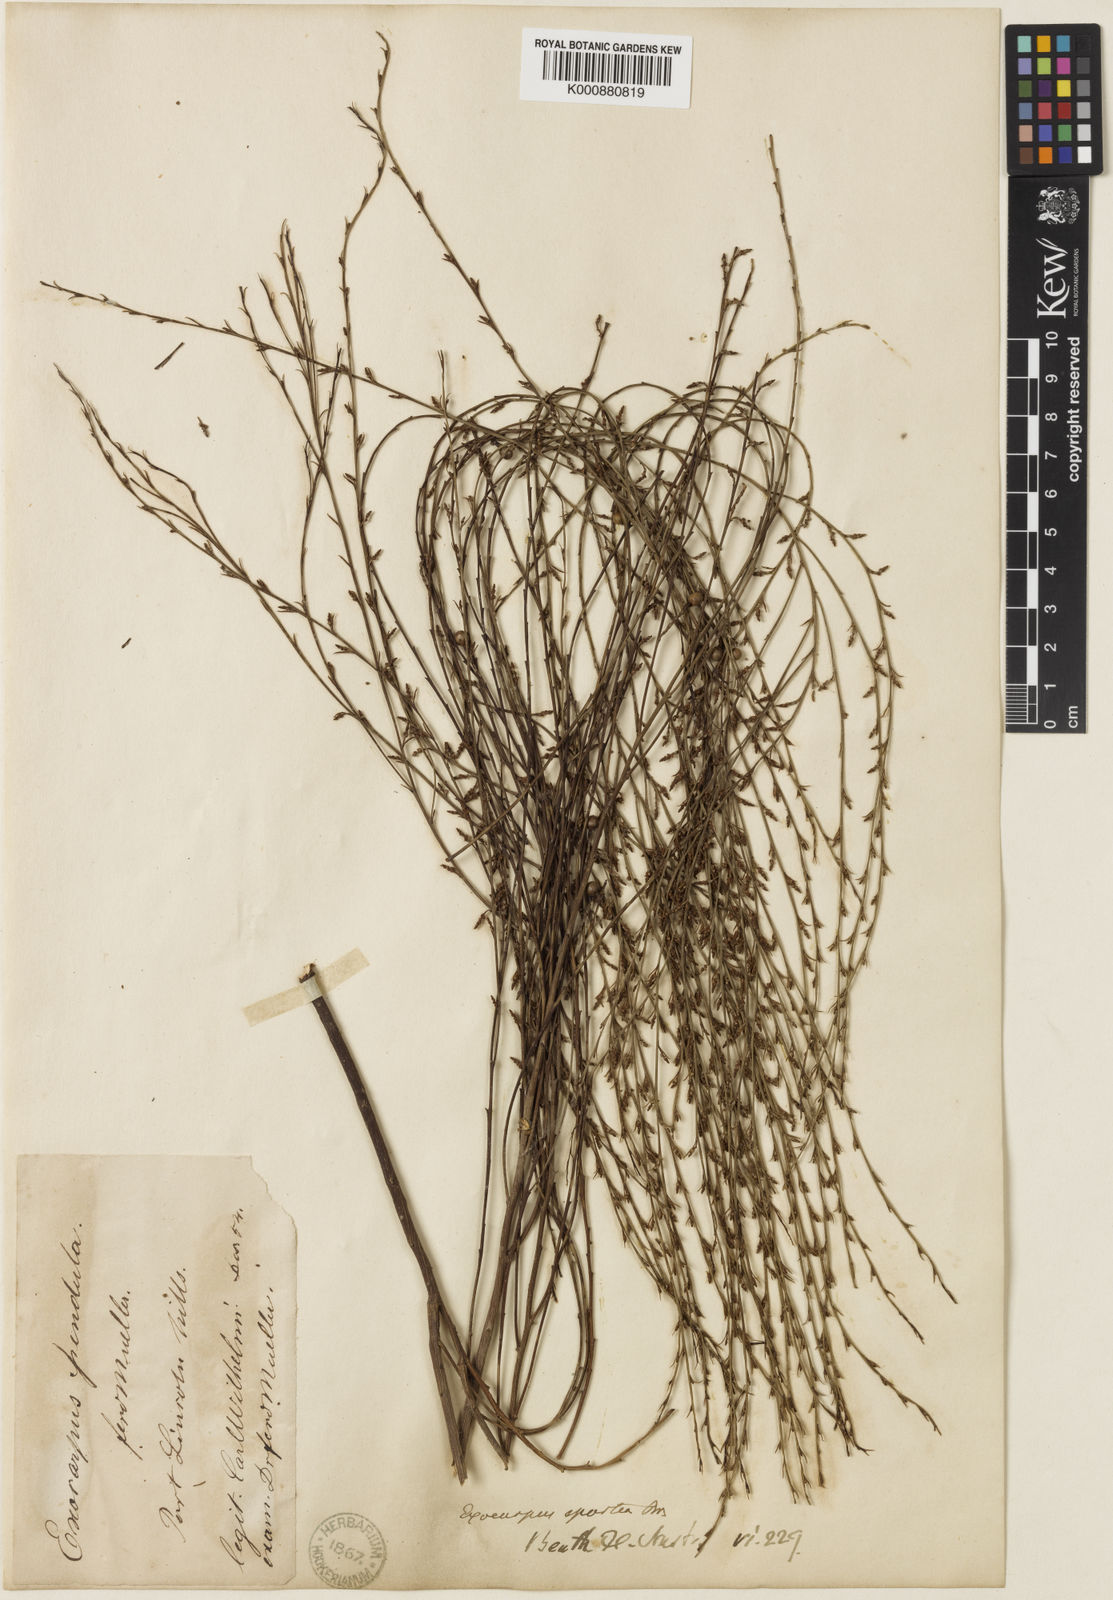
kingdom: Plantae
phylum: Tracheophyta
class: Magnoliopsida
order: Santalales
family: Santalaceae
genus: Exocarpos
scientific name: Exocarpos sparteus
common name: Broom ballart
